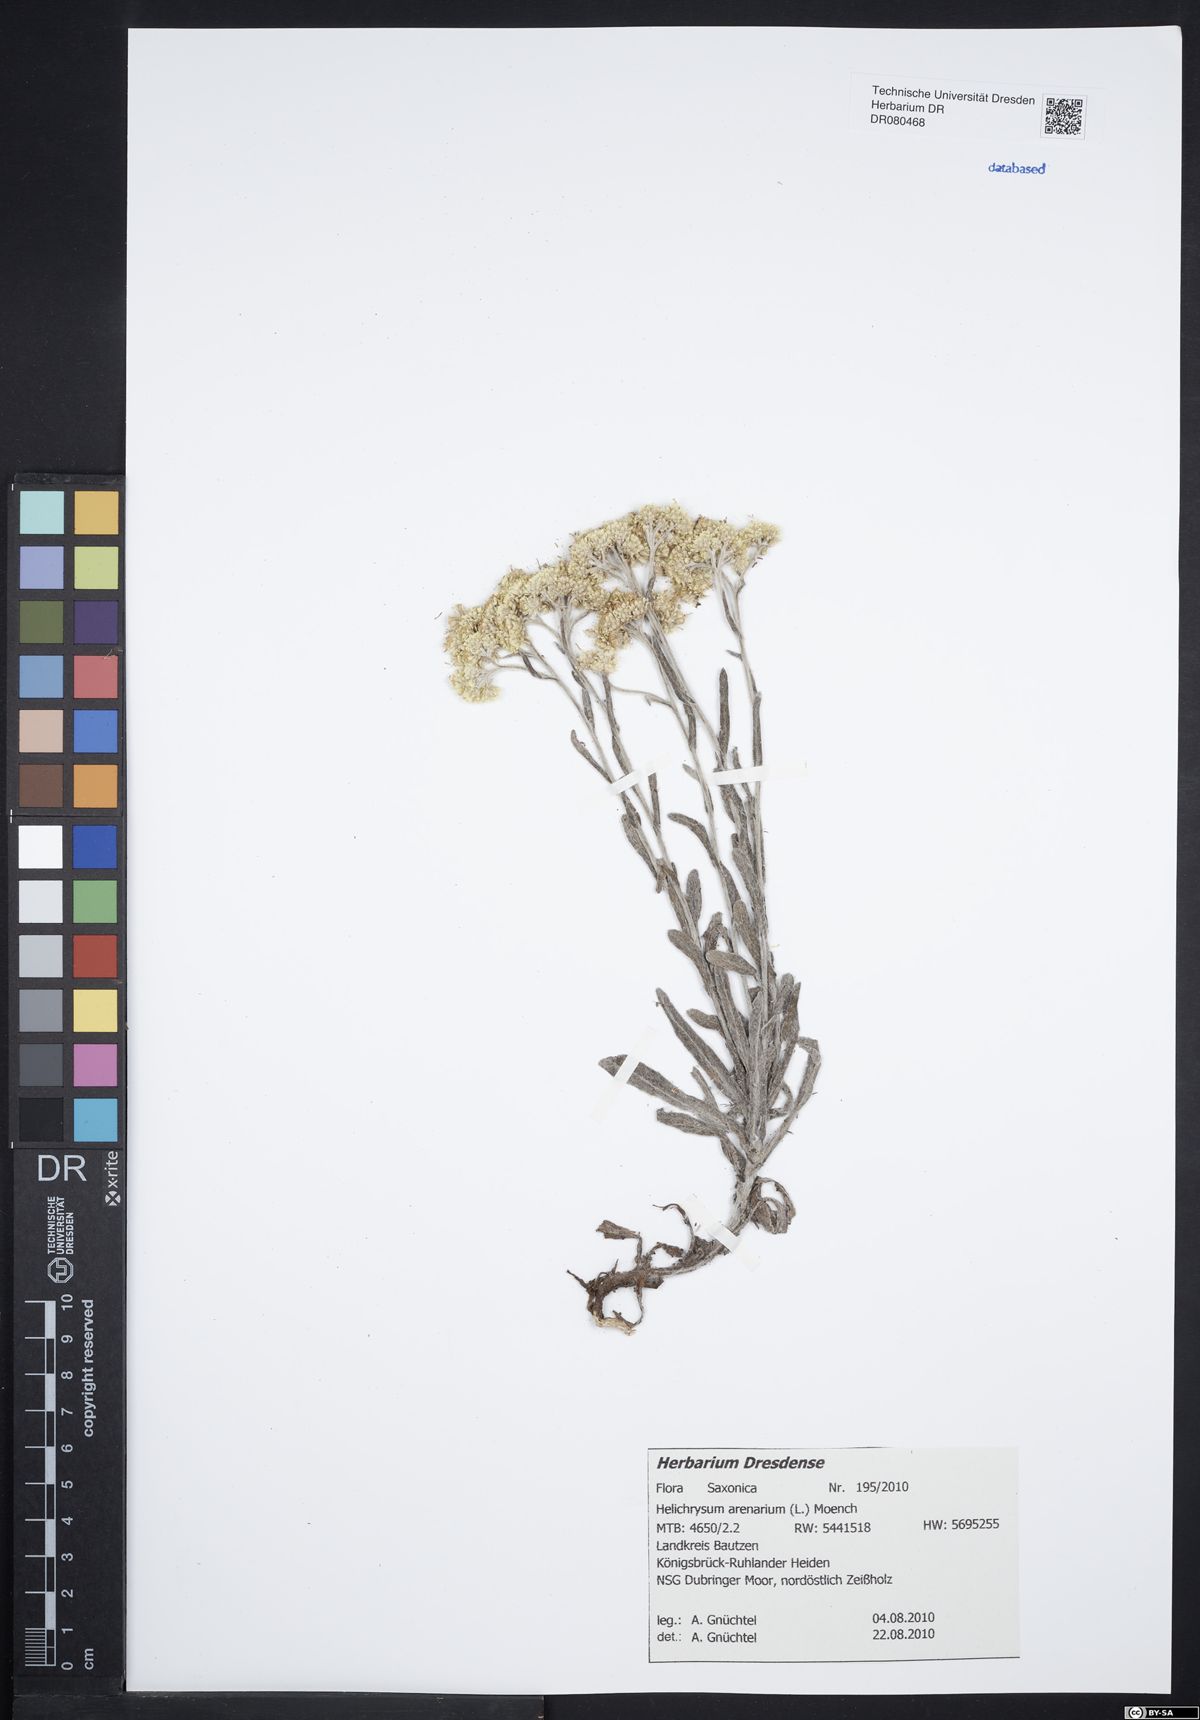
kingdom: Plantae
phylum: Tracheophyta
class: Magnoliopsida
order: Asterales
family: Asteraceae
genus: Helichrysum
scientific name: Helichrysum arenarium
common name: Strawflower
